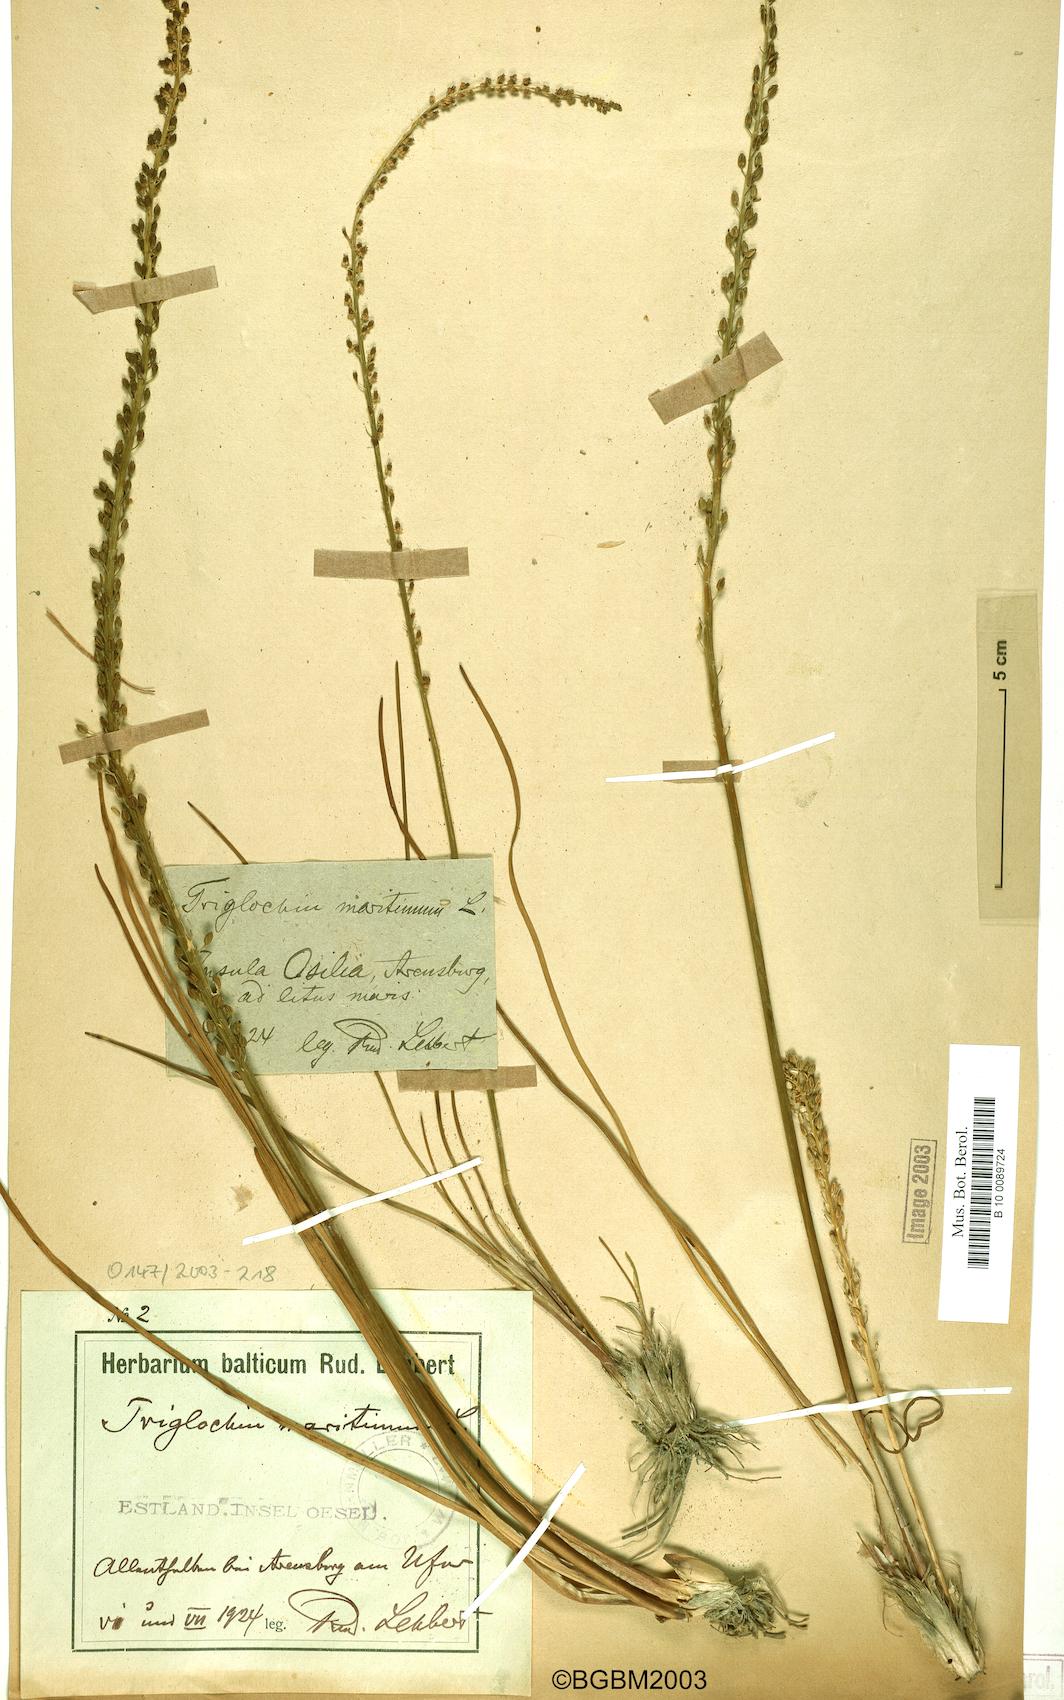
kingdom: Plantae
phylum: Tracheophyta
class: Liliopsida
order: Alismatales
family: Juncaginaceae
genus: Triglochin
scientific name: Triglochin maritima
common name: Sea arrowgrass
